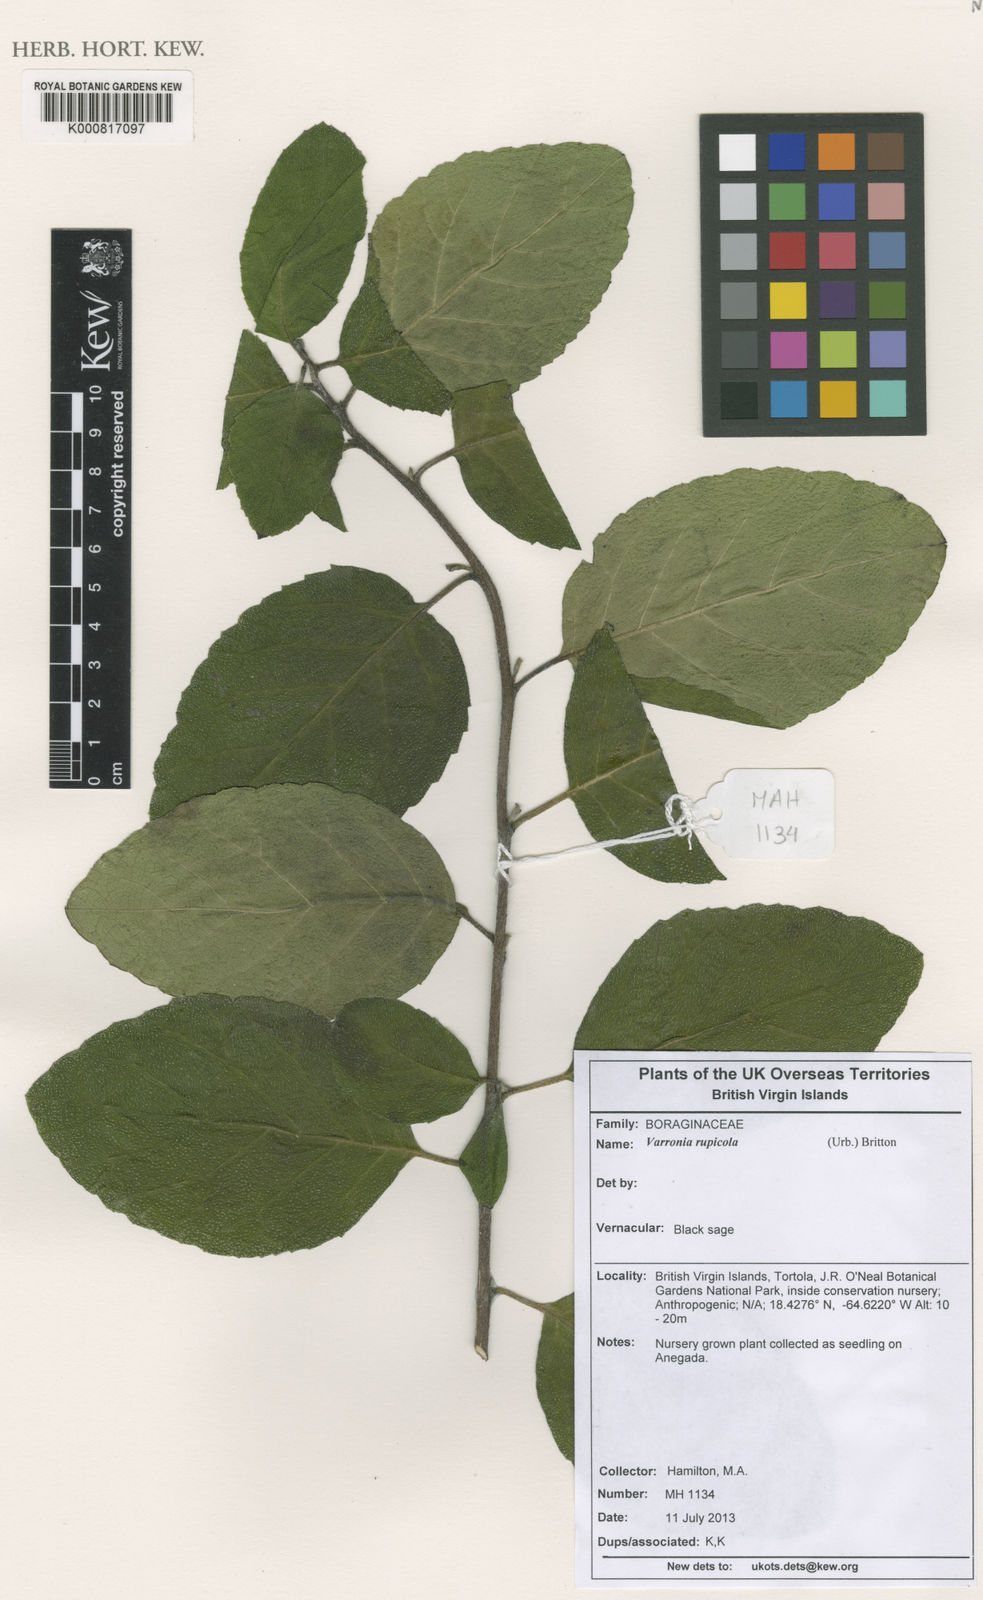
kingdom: Plantae
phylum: Tracheophyta
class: Magnoliopsida
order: Boraginales
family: Cordiaceae
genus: Varronia
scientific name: Varronia rupicola
